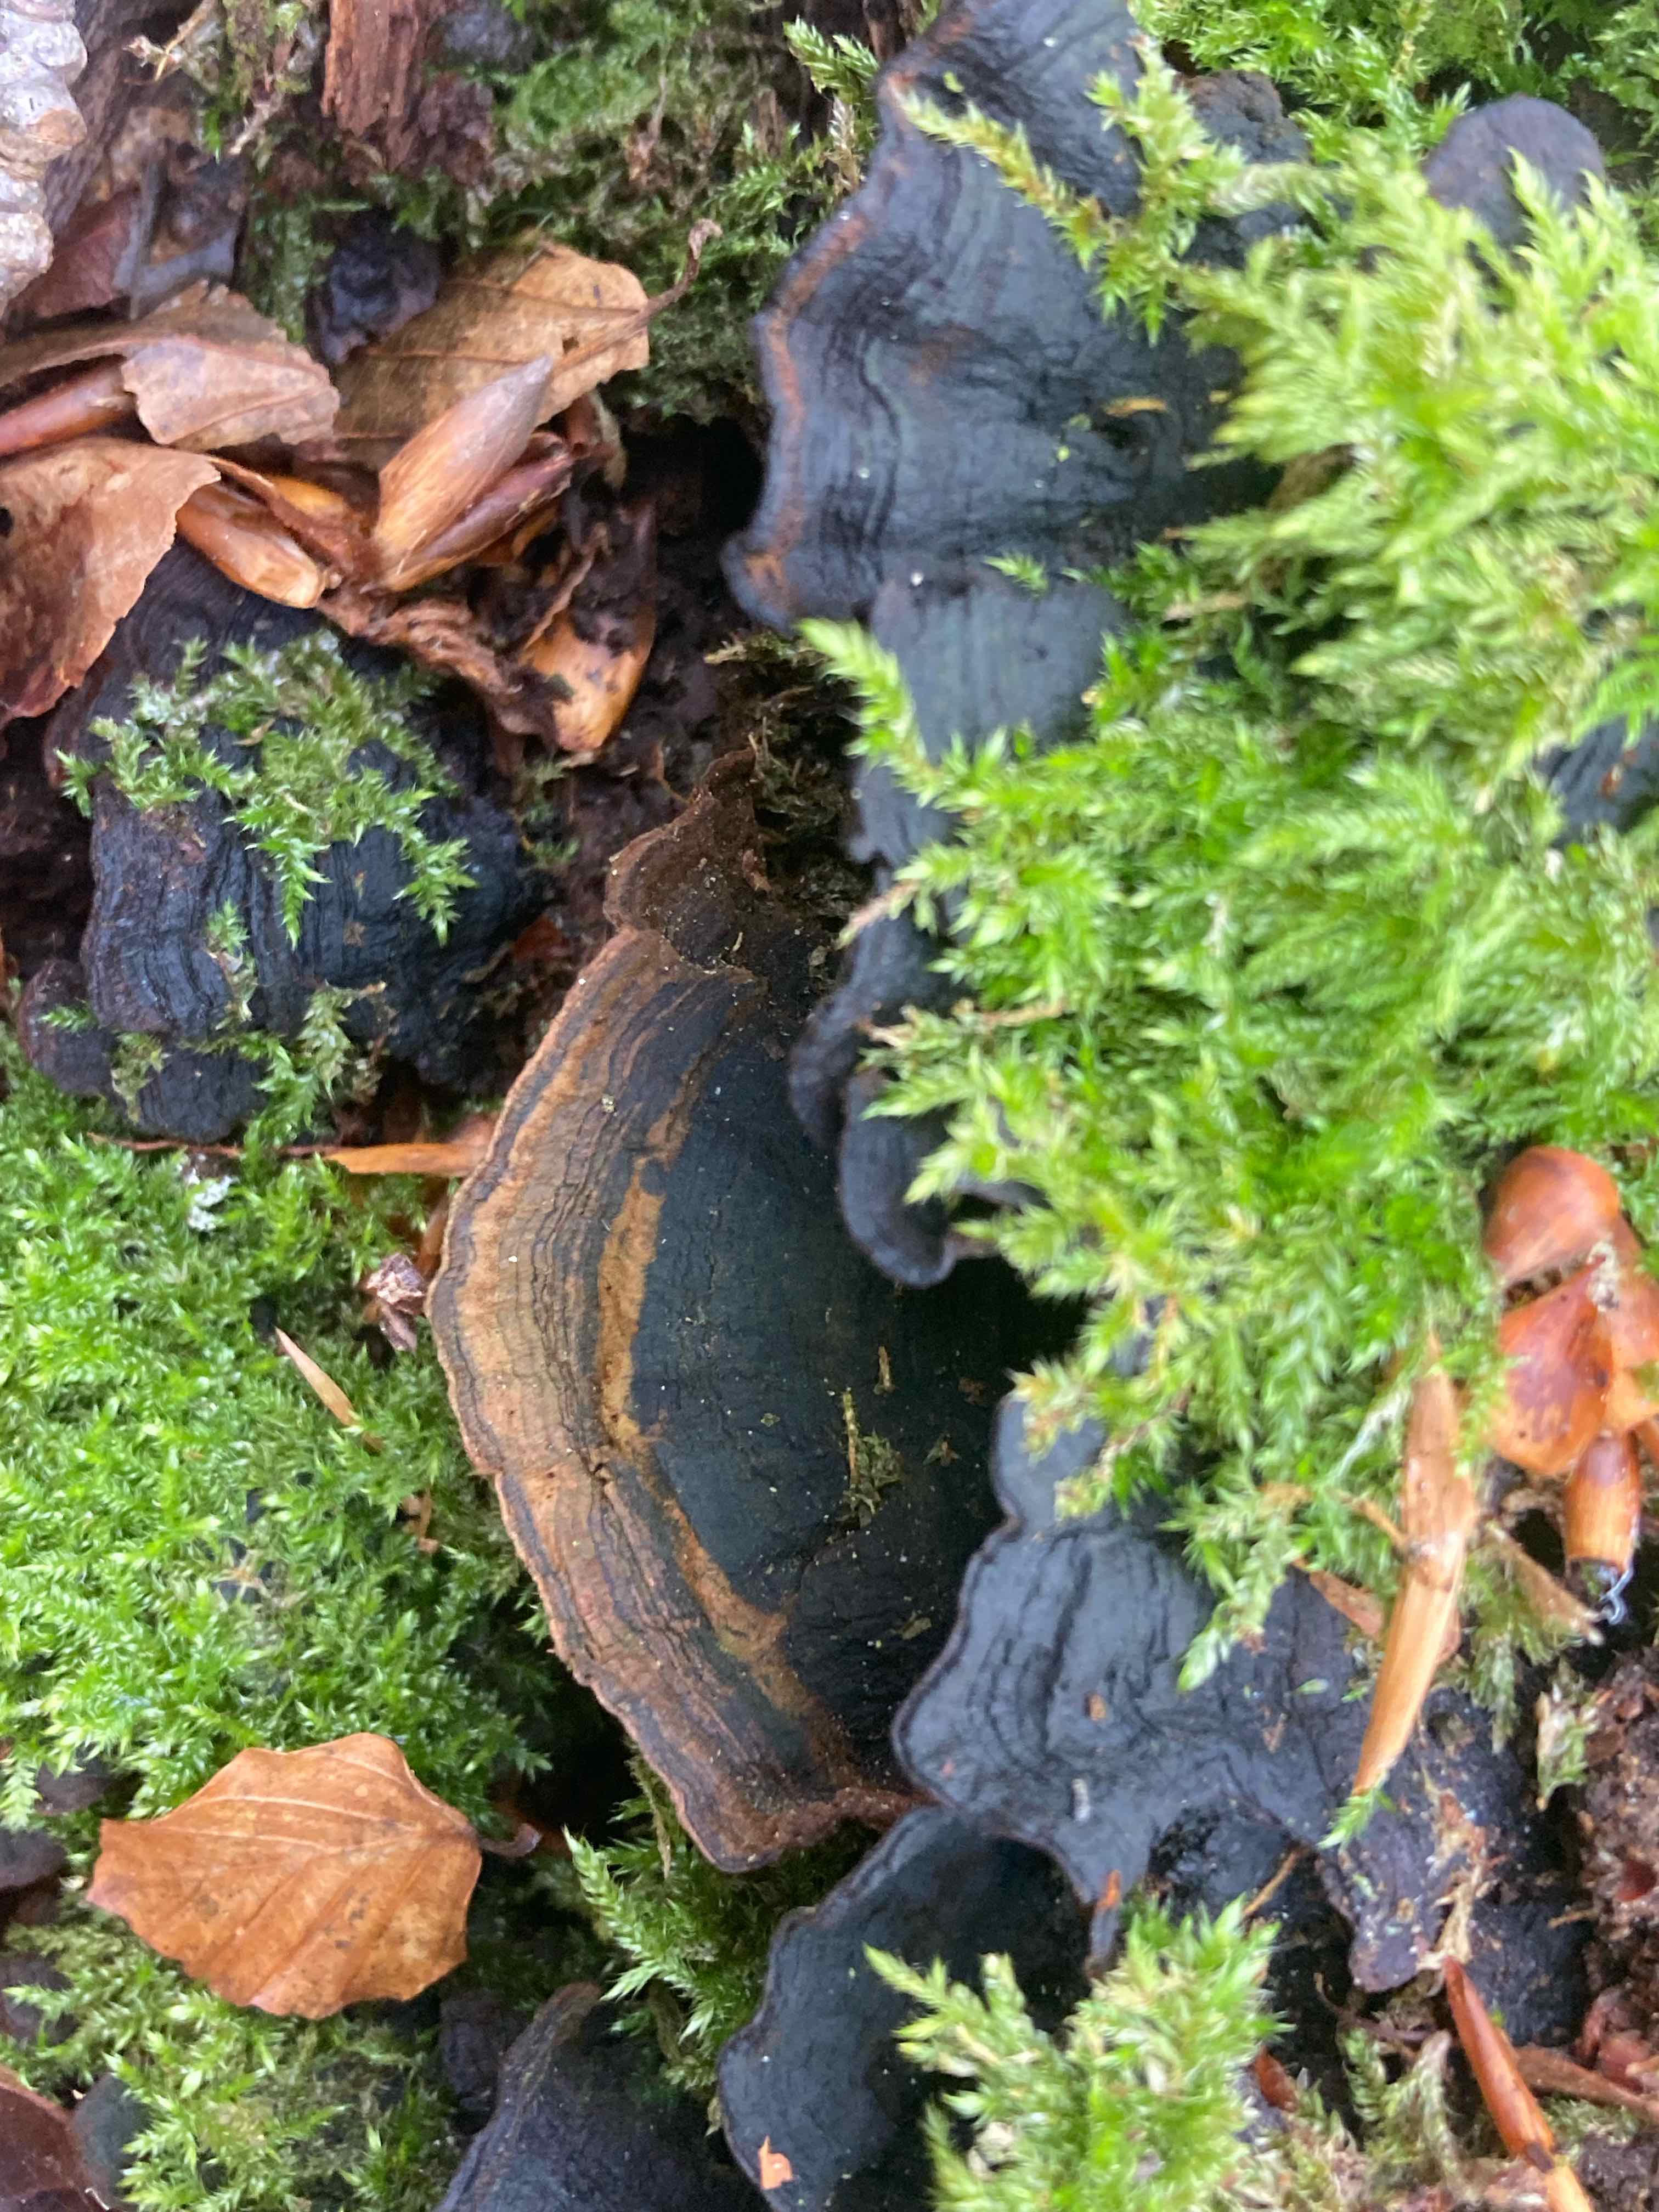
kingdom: Fungi
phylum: Basidiomycota
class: Agaricomycetes
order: Hymenochaetales
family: Hymenochaetaceae
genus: Hymenochaete
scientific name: Hymenochaete rubiginosa
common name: stiv ruslædersvamp
